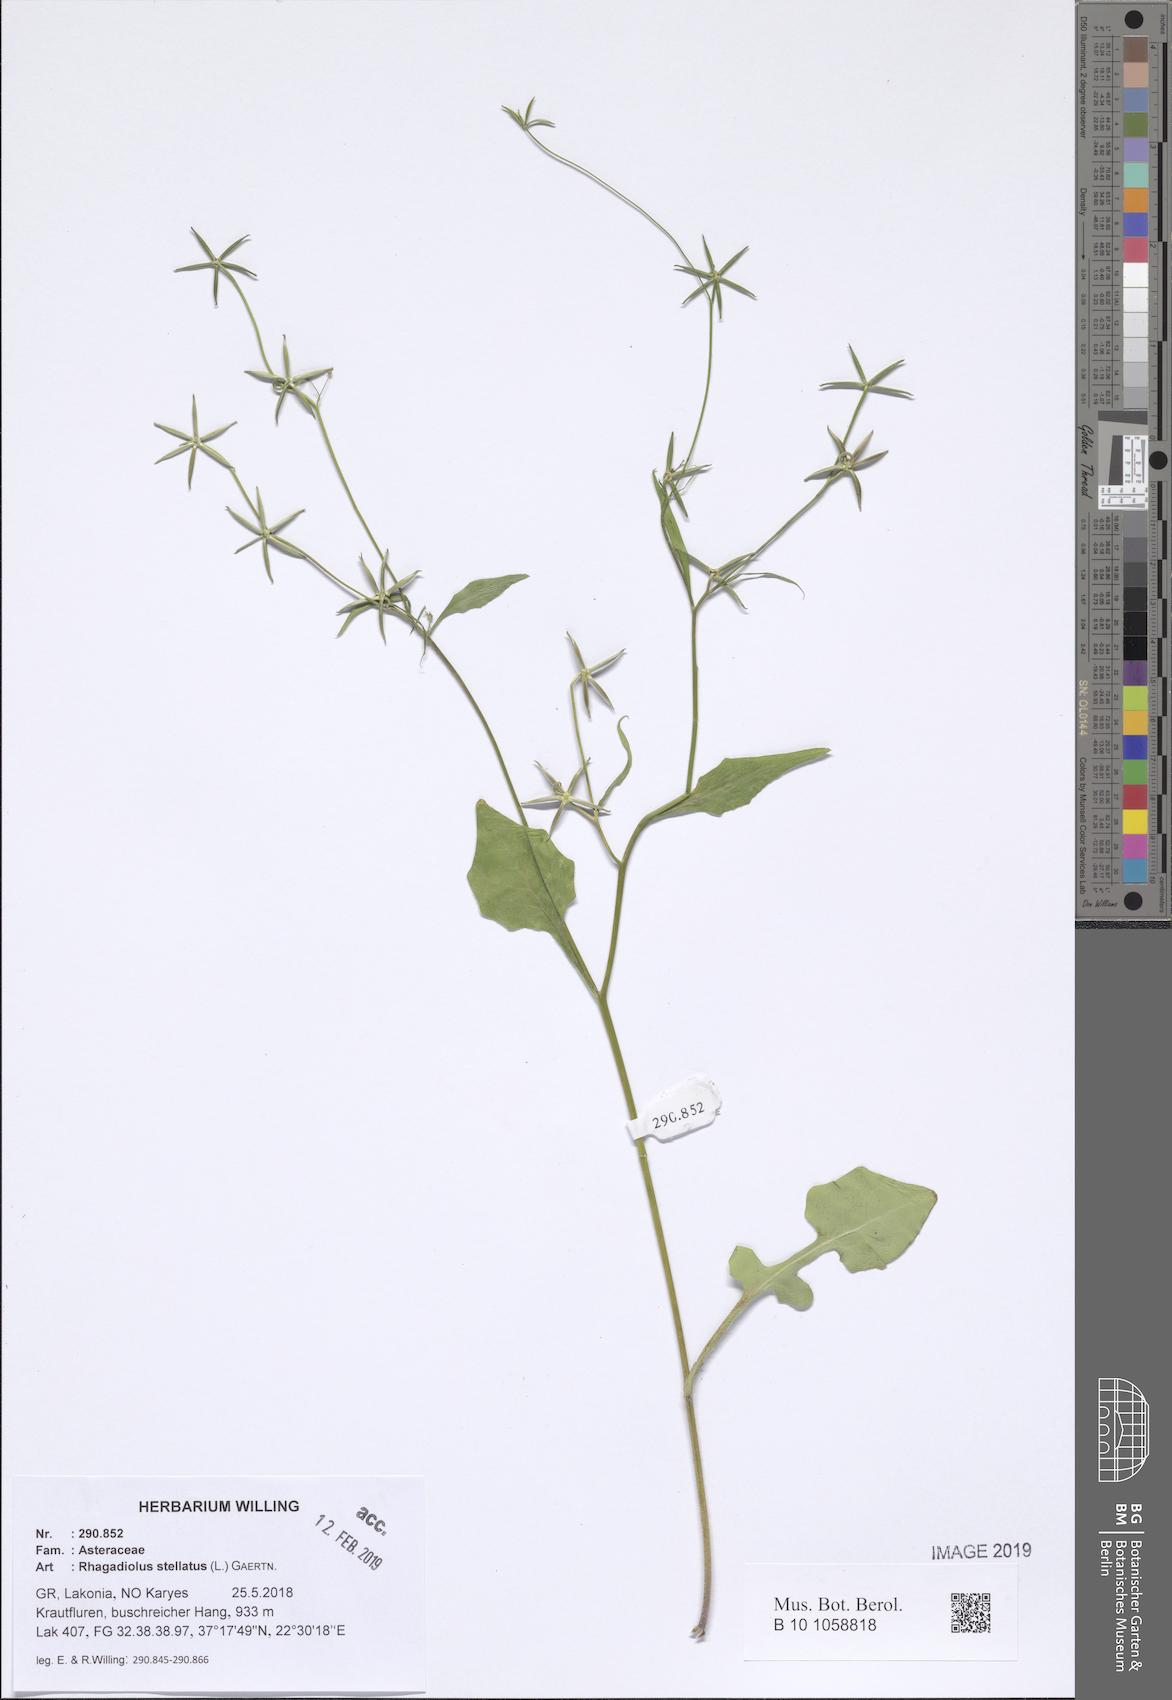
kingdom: Plantae
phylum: Tracheophyta
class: Magnoliopsida
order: Asterales
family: Asteraceae
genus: Rhagadiolus
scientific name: Rhagadiolus stellatus
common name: Star hawkbit
